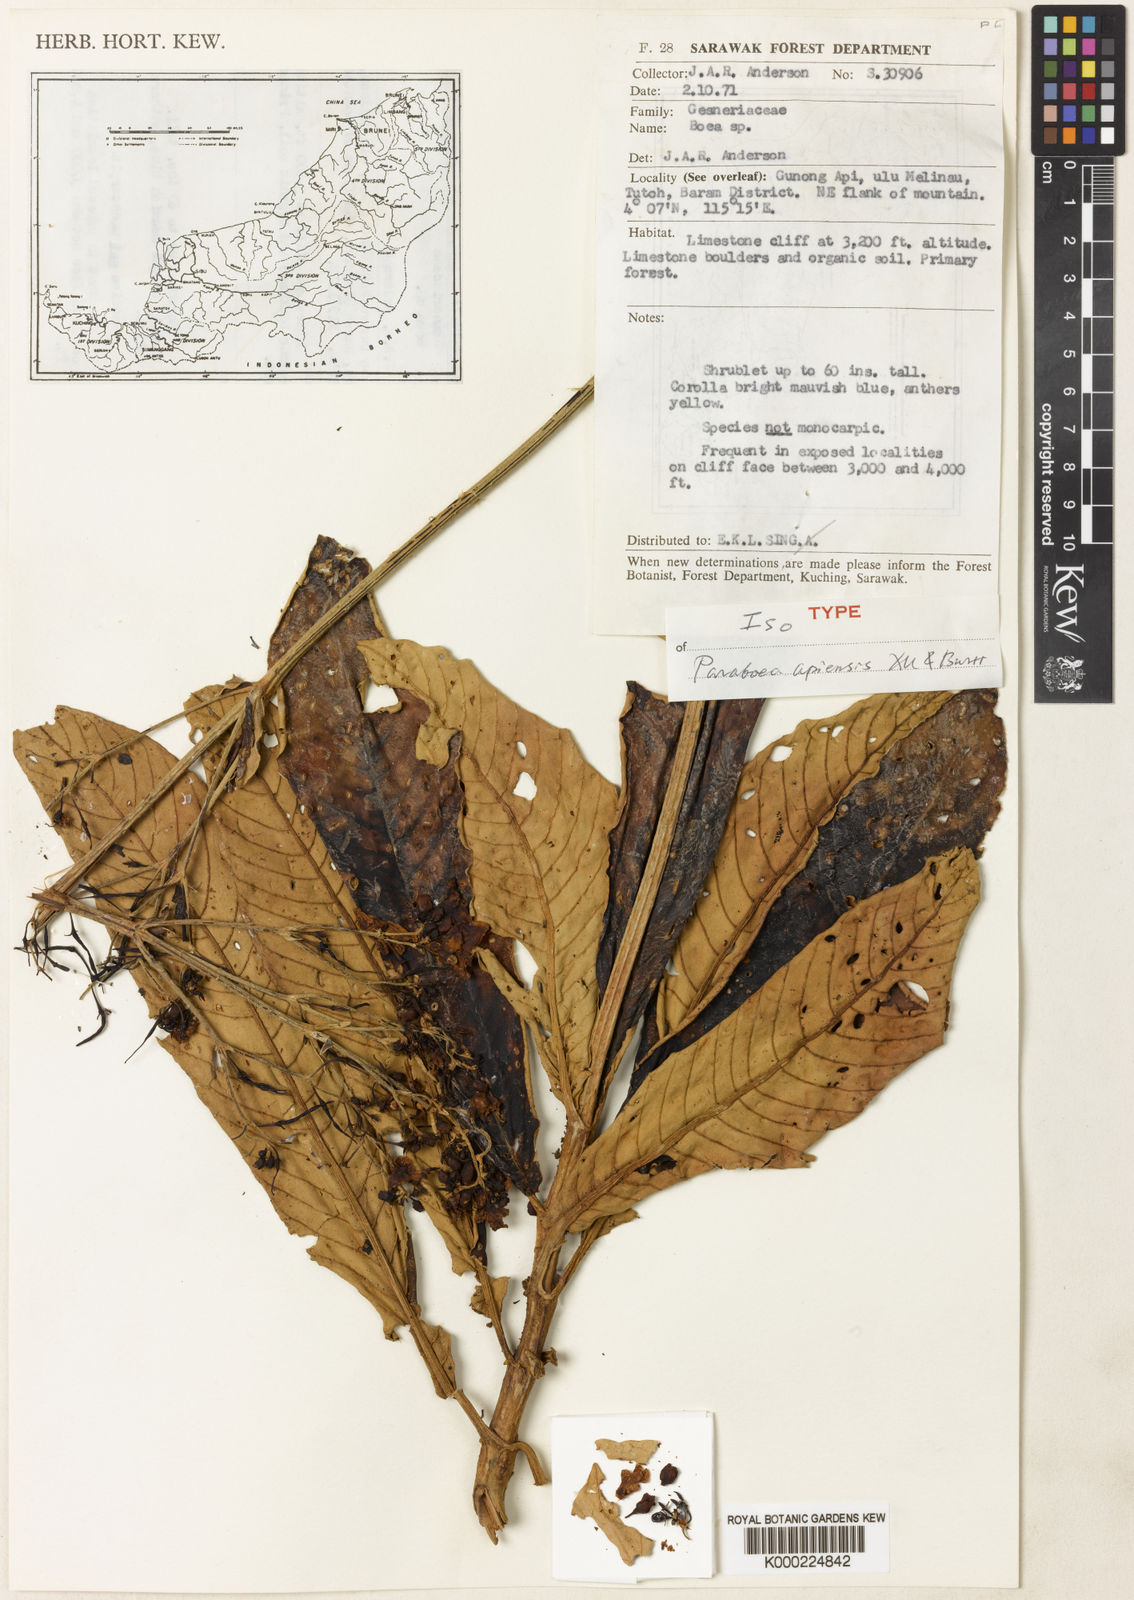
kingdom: Plantae
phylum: Tracheophyta
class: Magnoliopsida
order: Lamiales
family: Gesneriaceae
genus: Paraboea
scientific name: Paraboea apiensis
